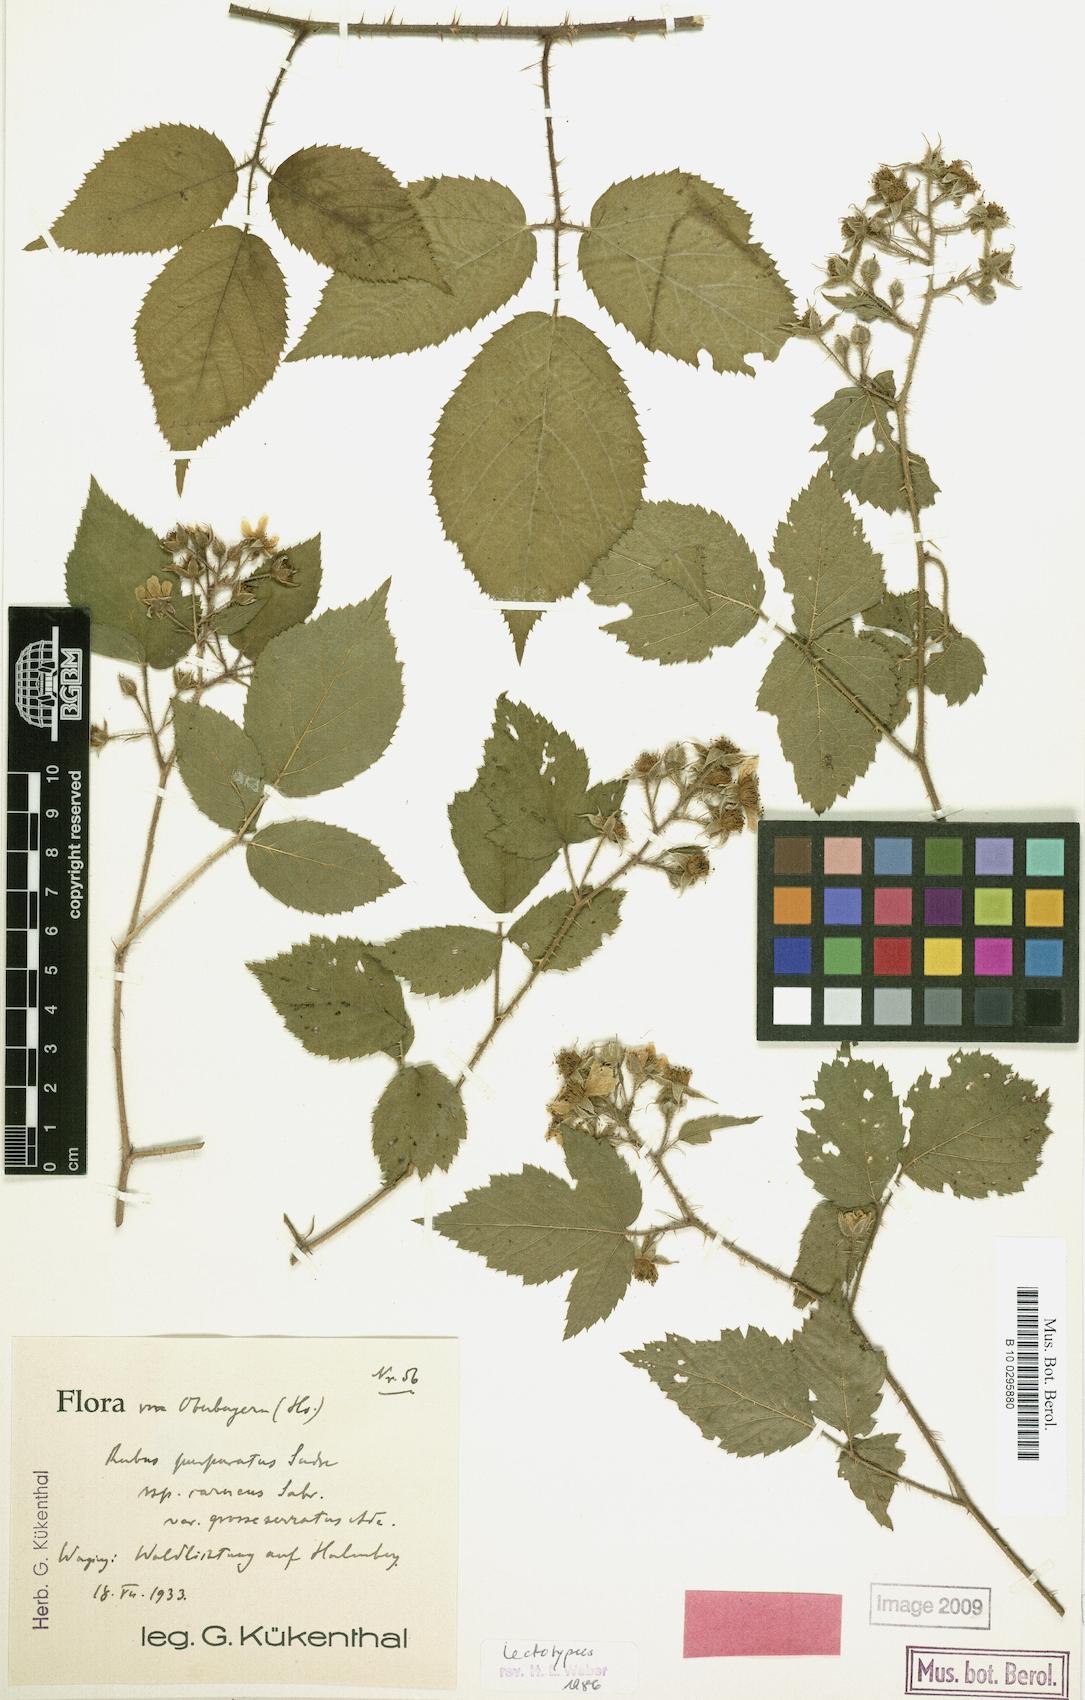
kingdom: Plantae
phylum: Tracheophyta
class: Magnoliopsida
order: Rosales
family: Rosaceae
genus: Rubus
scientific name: Rubus praedatus
